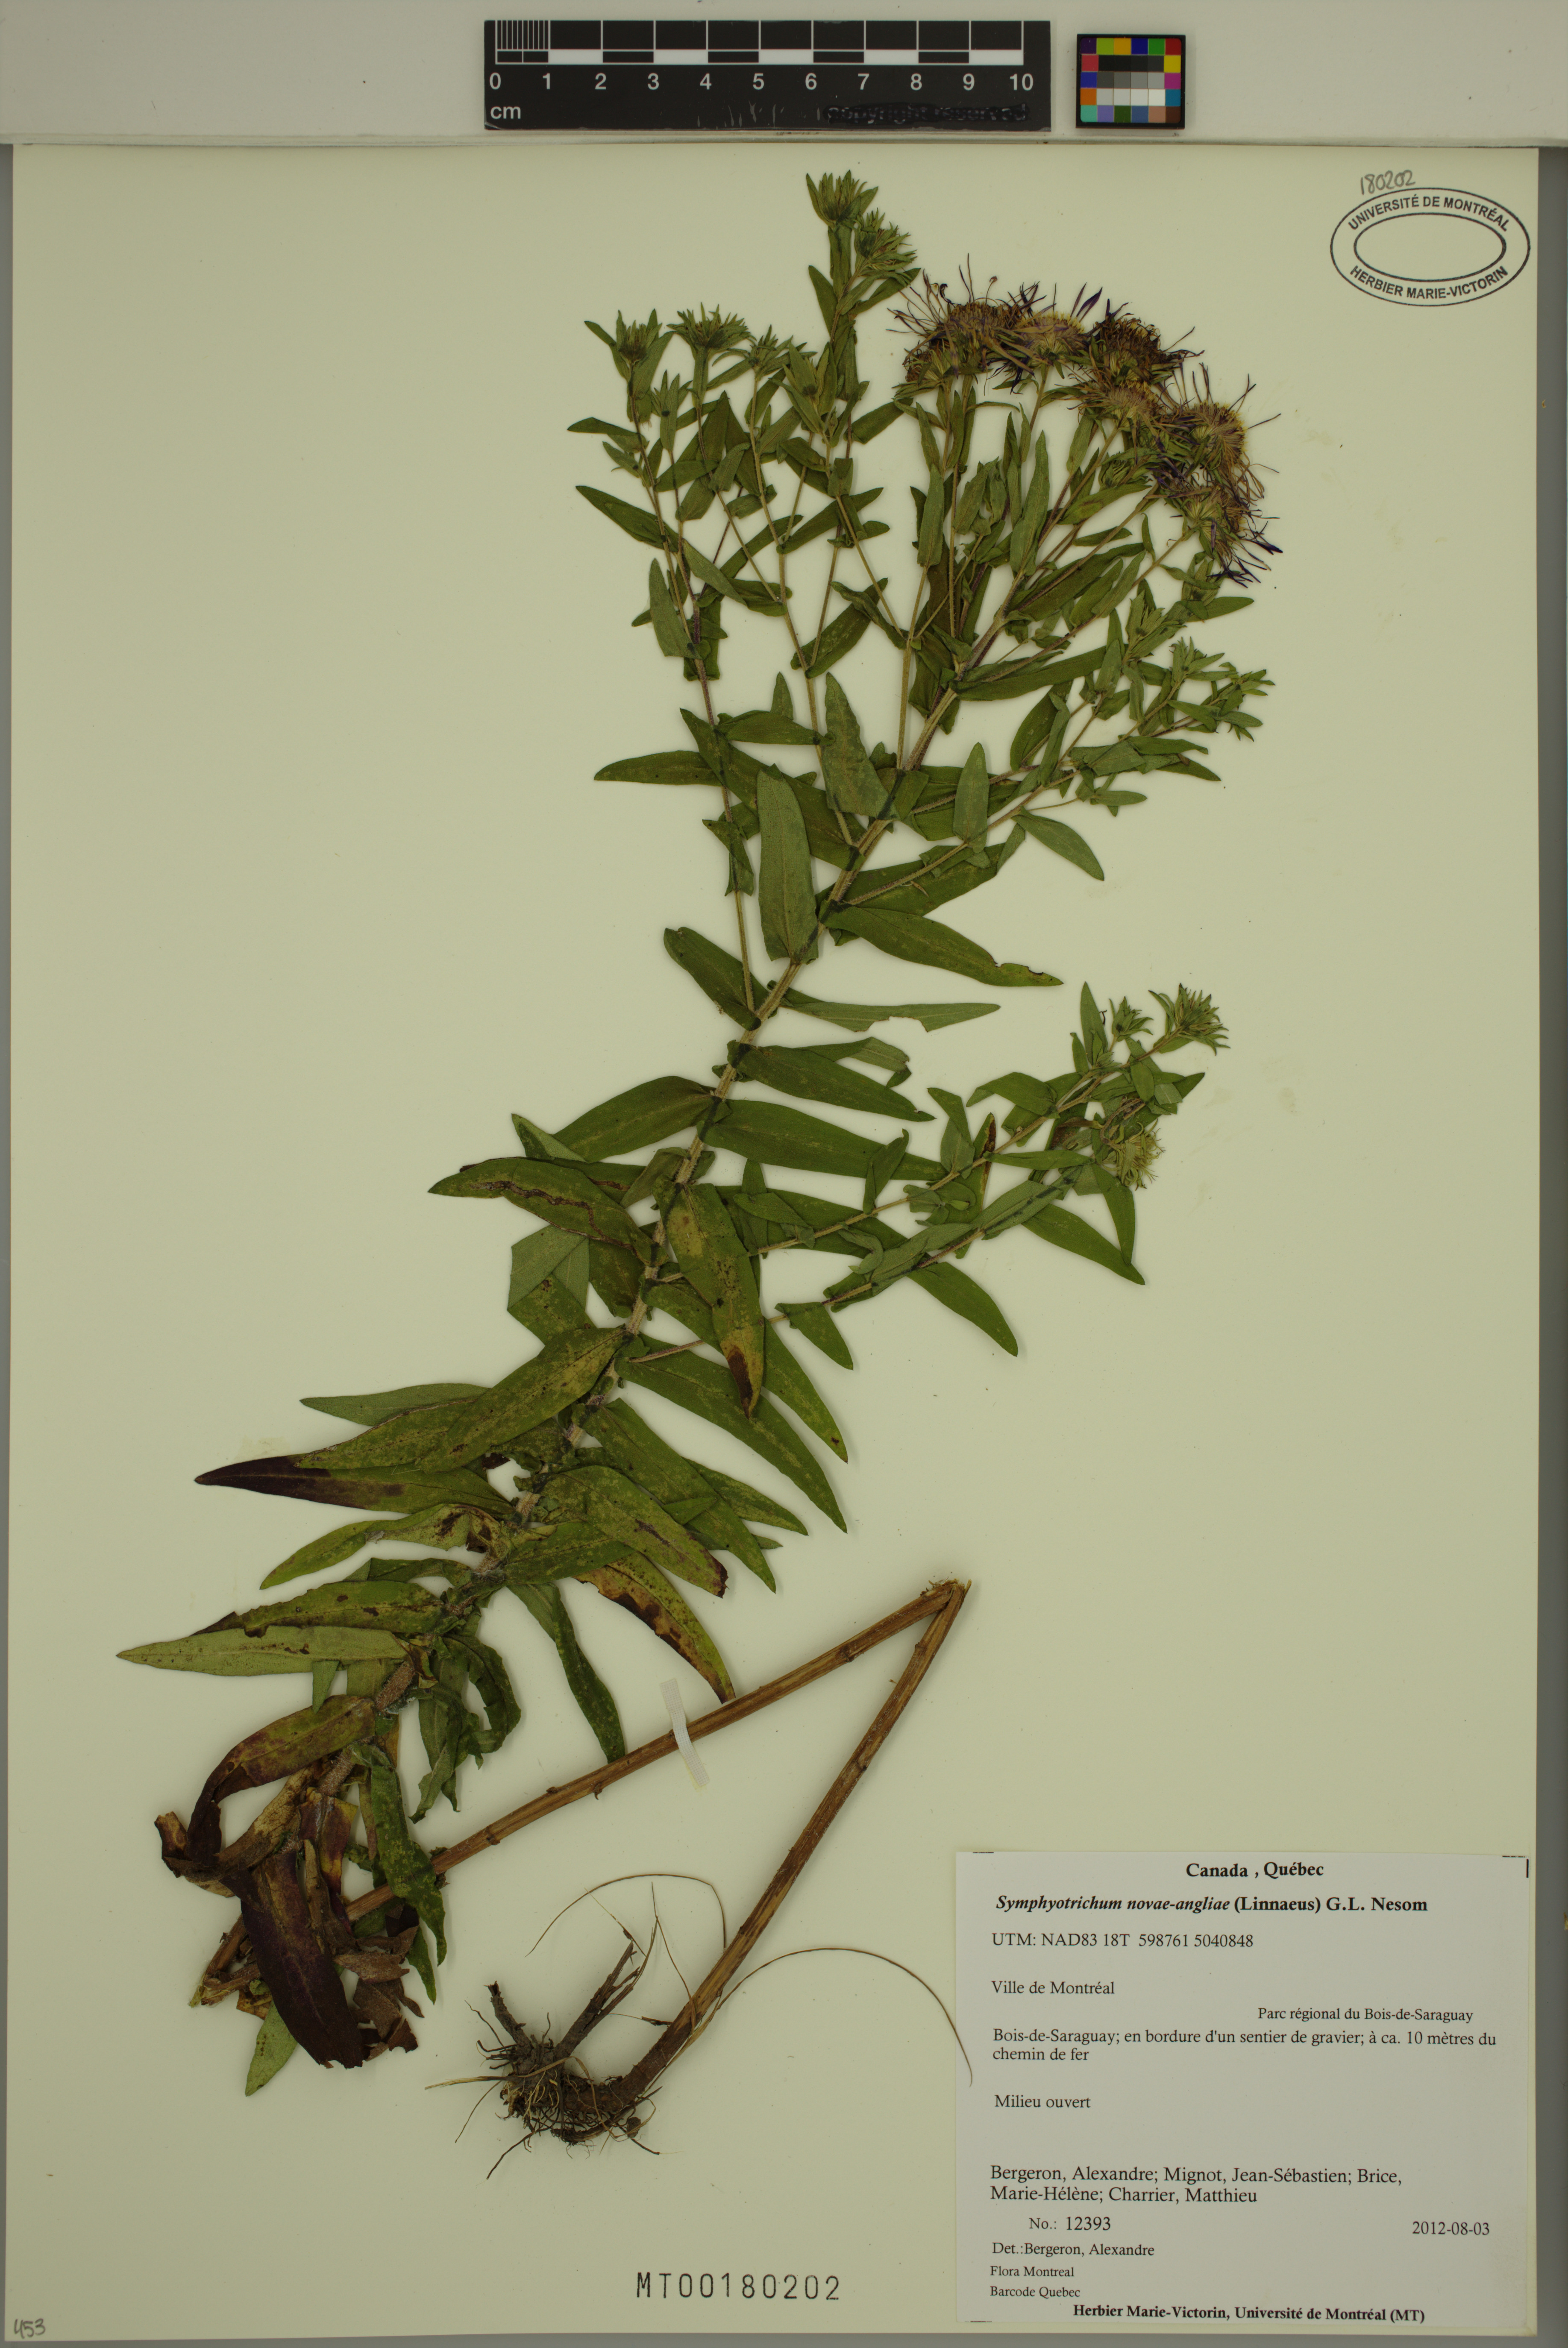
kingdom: Plantae
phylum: Tracheophyta
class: Magnoliopsida
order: Asterales
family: Asteraceae
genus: Symphyotrichum
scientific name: Symphyotrichum novae-angliae
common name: Michaelmas daisy
